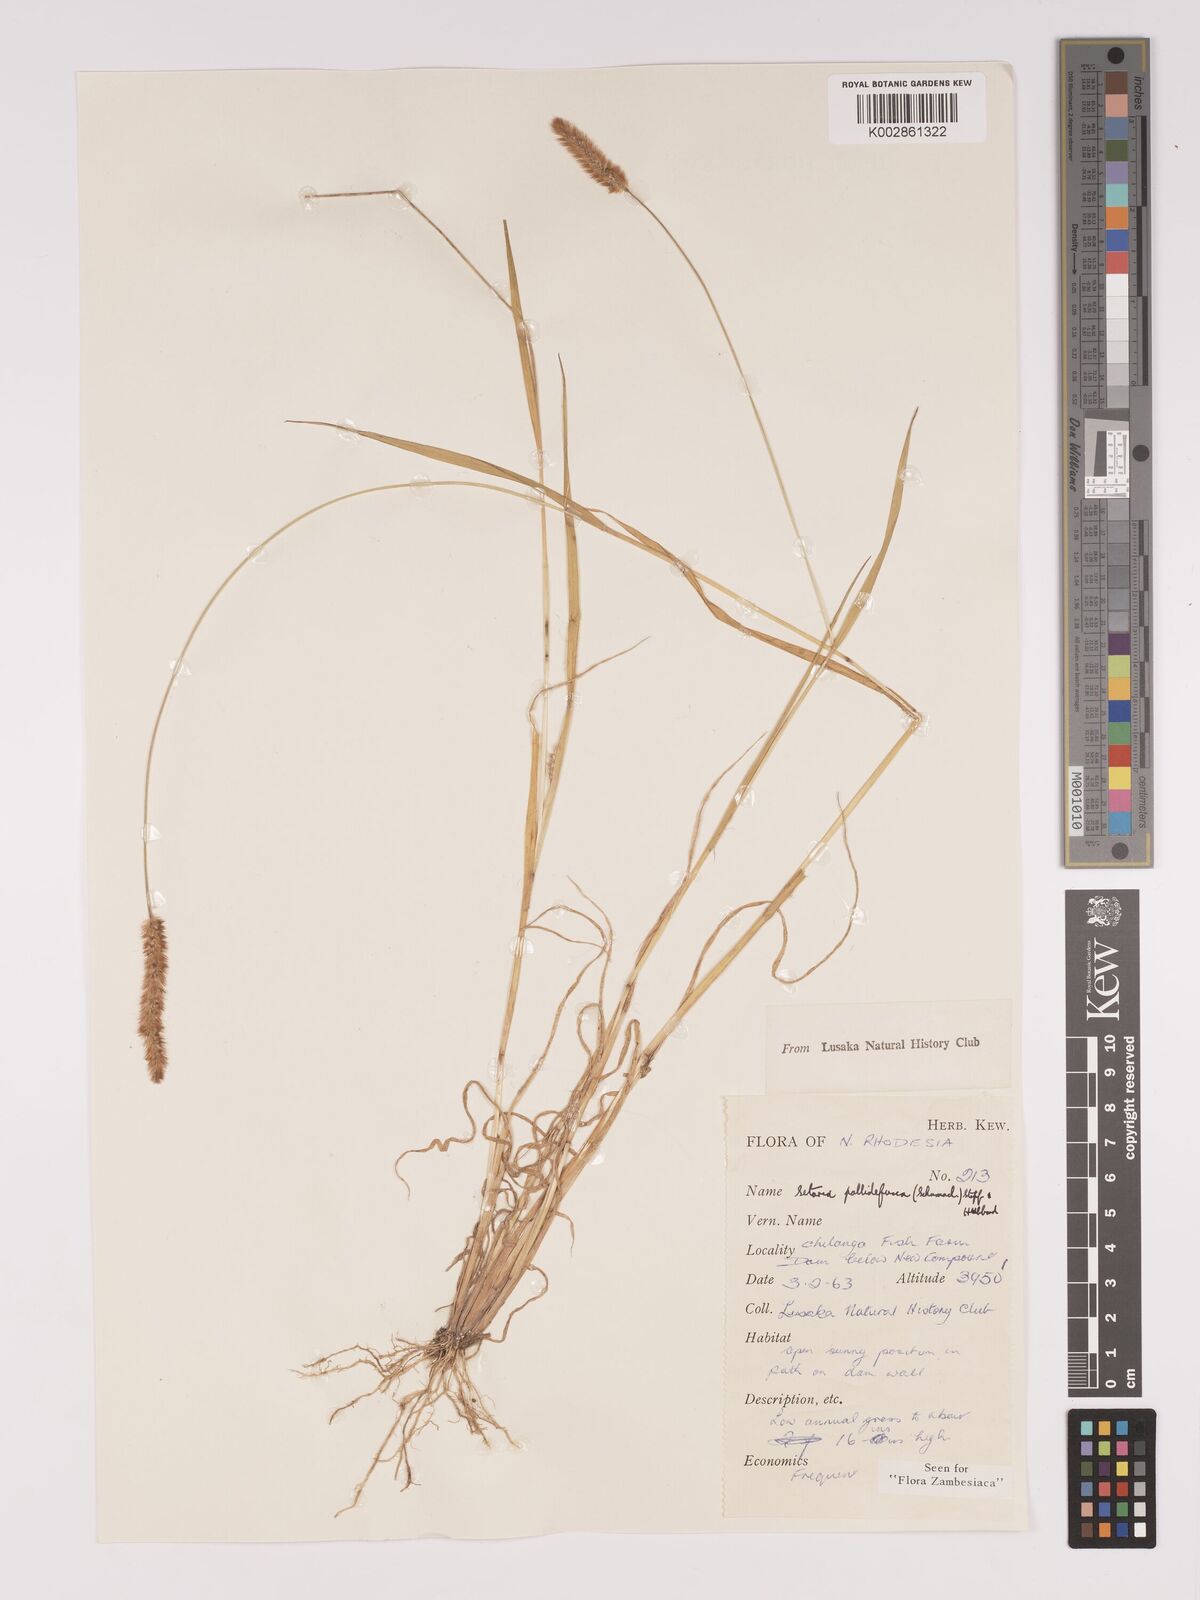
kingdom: Plantae
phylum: Tracheophyta
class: Liliopsida
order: Poales
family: Poaceae
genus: Setaria
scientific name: Setaria pumila
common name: Yellow bristle-grass
